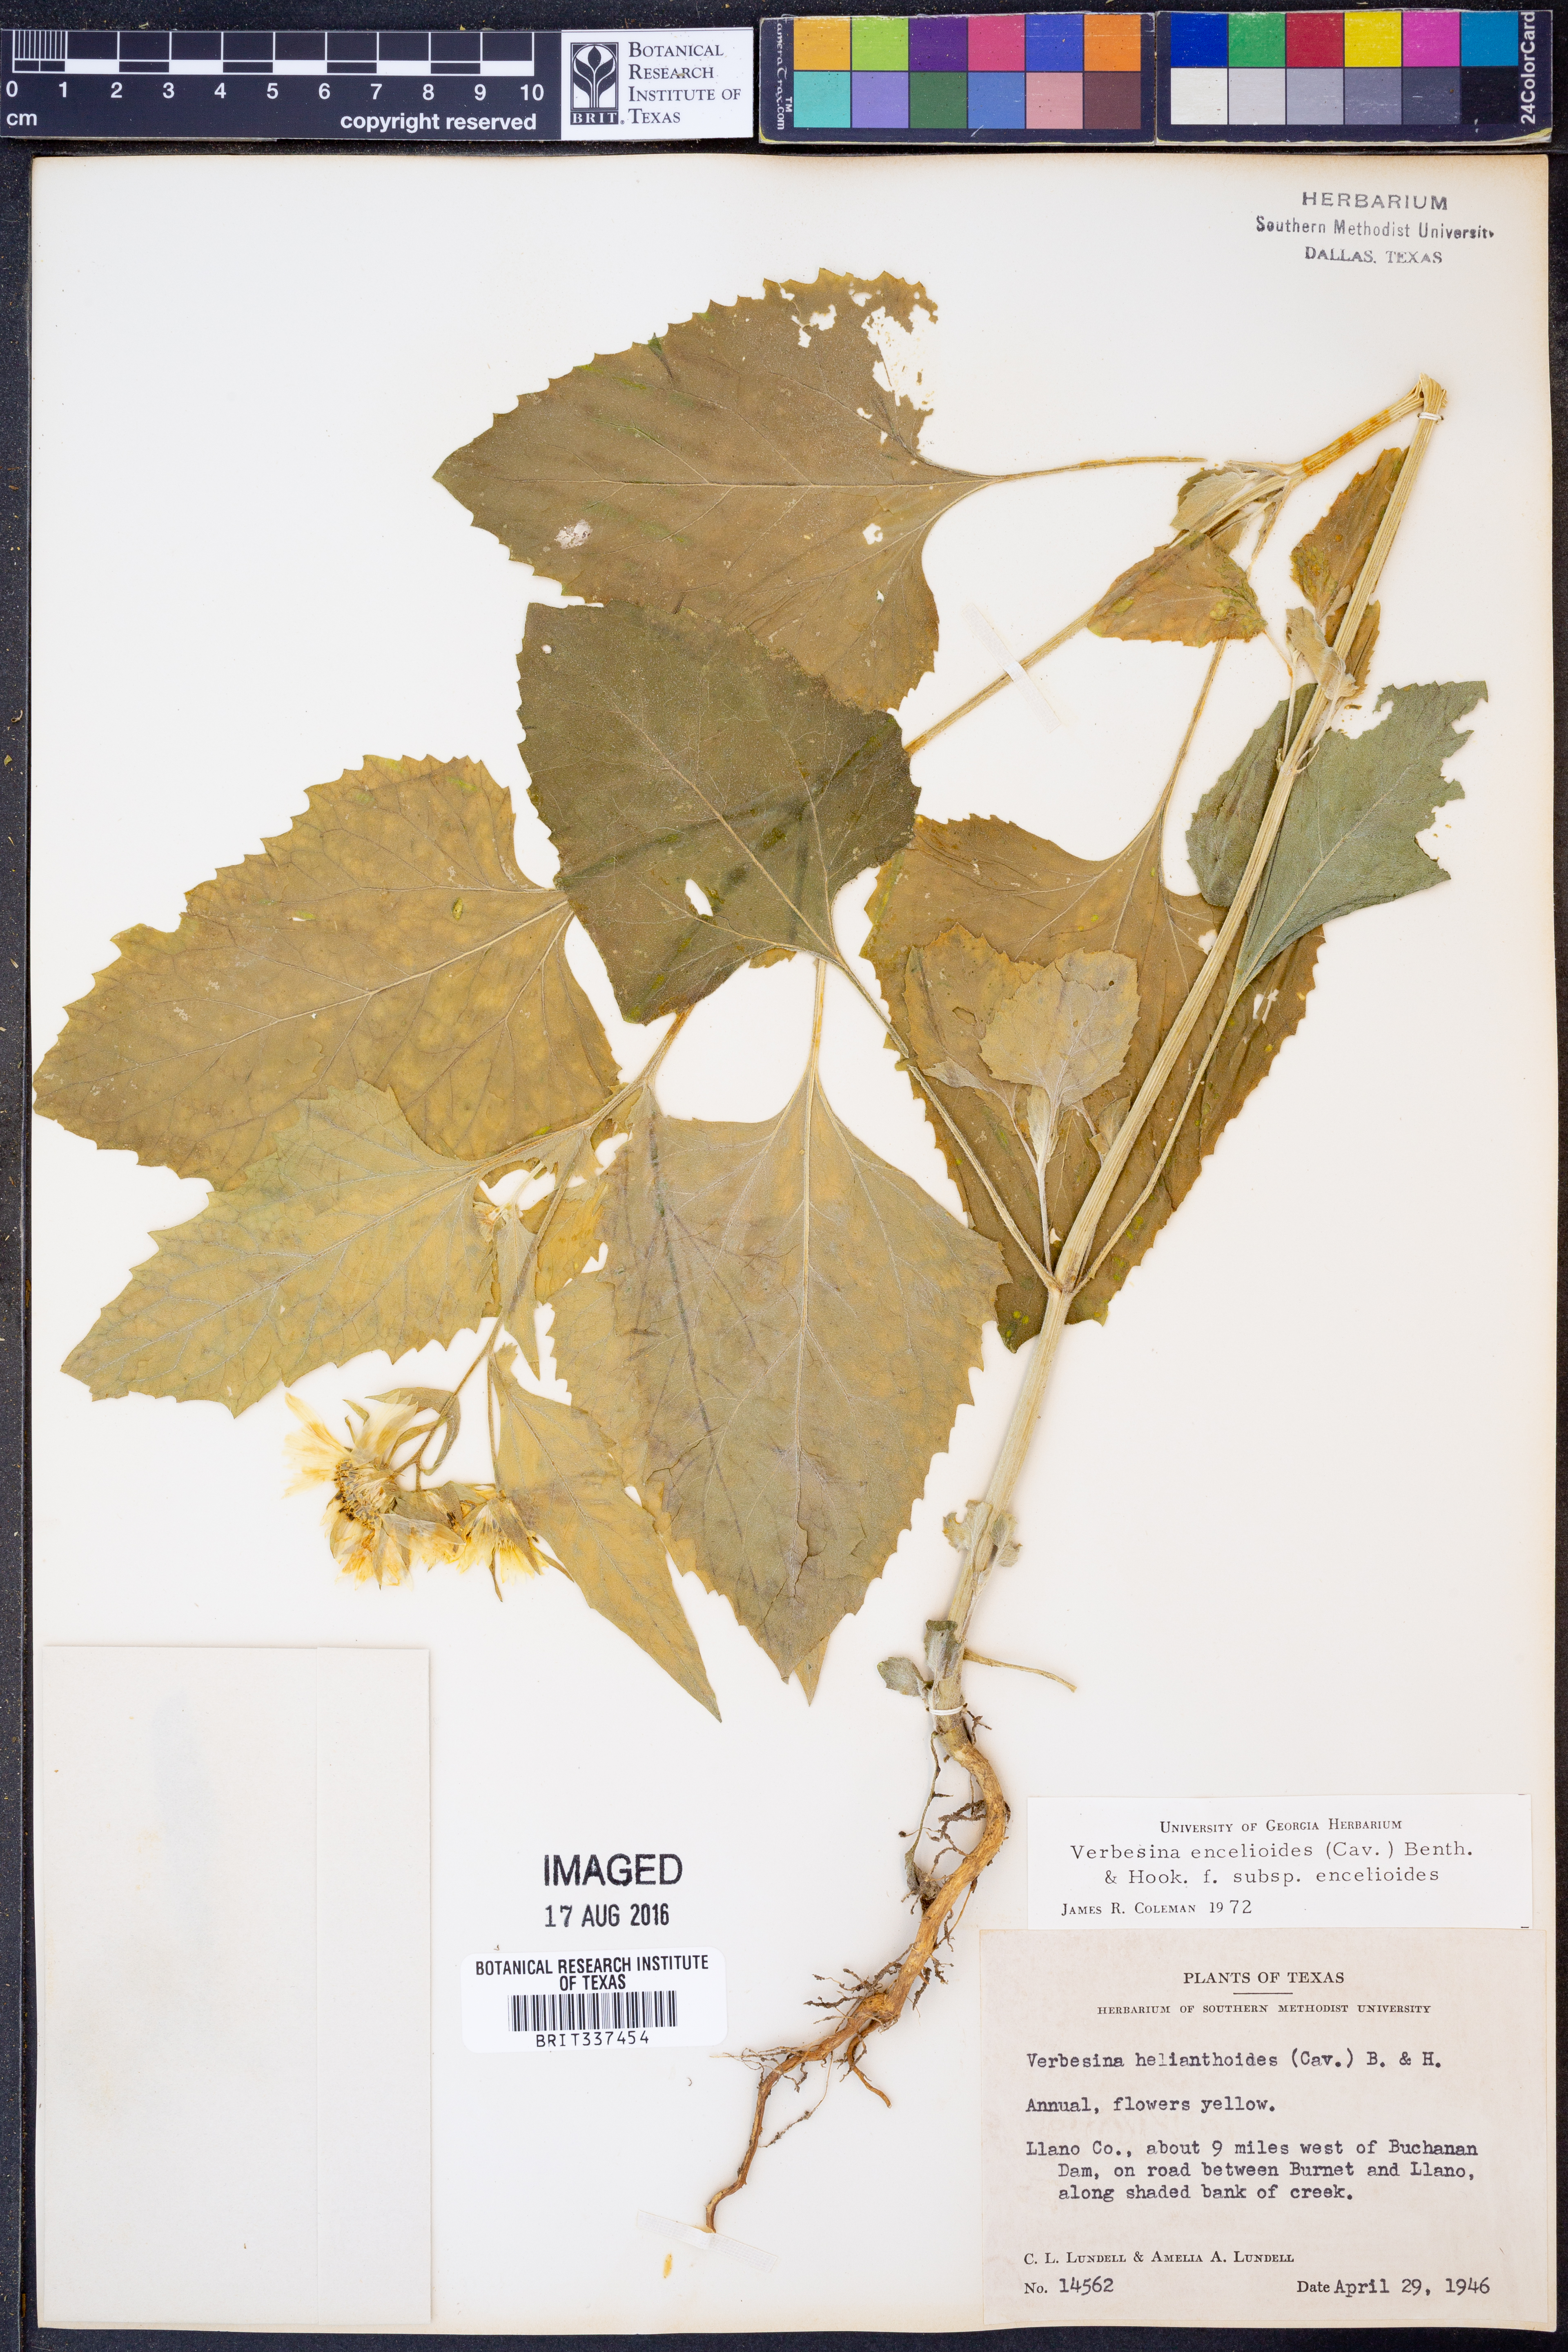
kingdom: Plantae
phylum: Tracheophyta
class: Magnoliopsida
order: Asterales
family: Asteraceae
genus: Verbesina
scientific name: Verbesina encelioides
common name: Golden crownbeard
